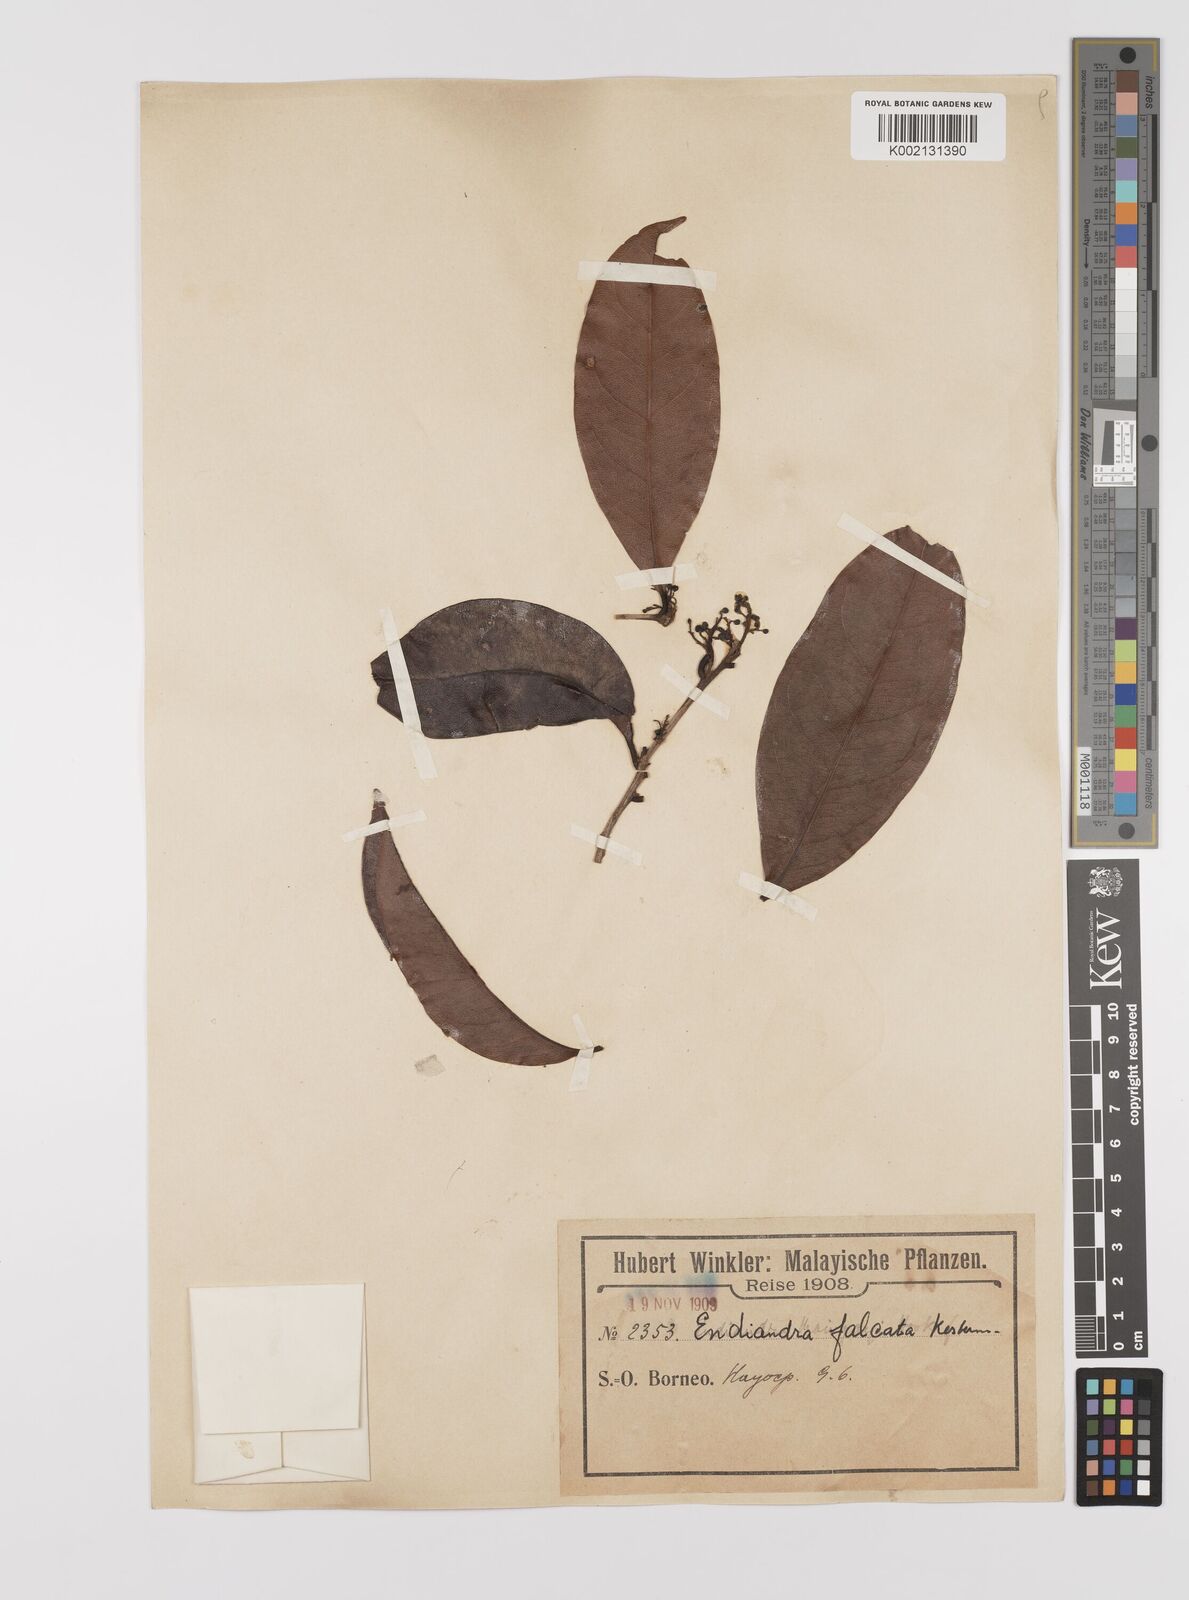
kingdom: Plantae
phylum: Tracheophyta
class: Magnoliopsida
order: Laurales
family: Lauraceae
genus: Endiandra
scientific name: Endiandra
